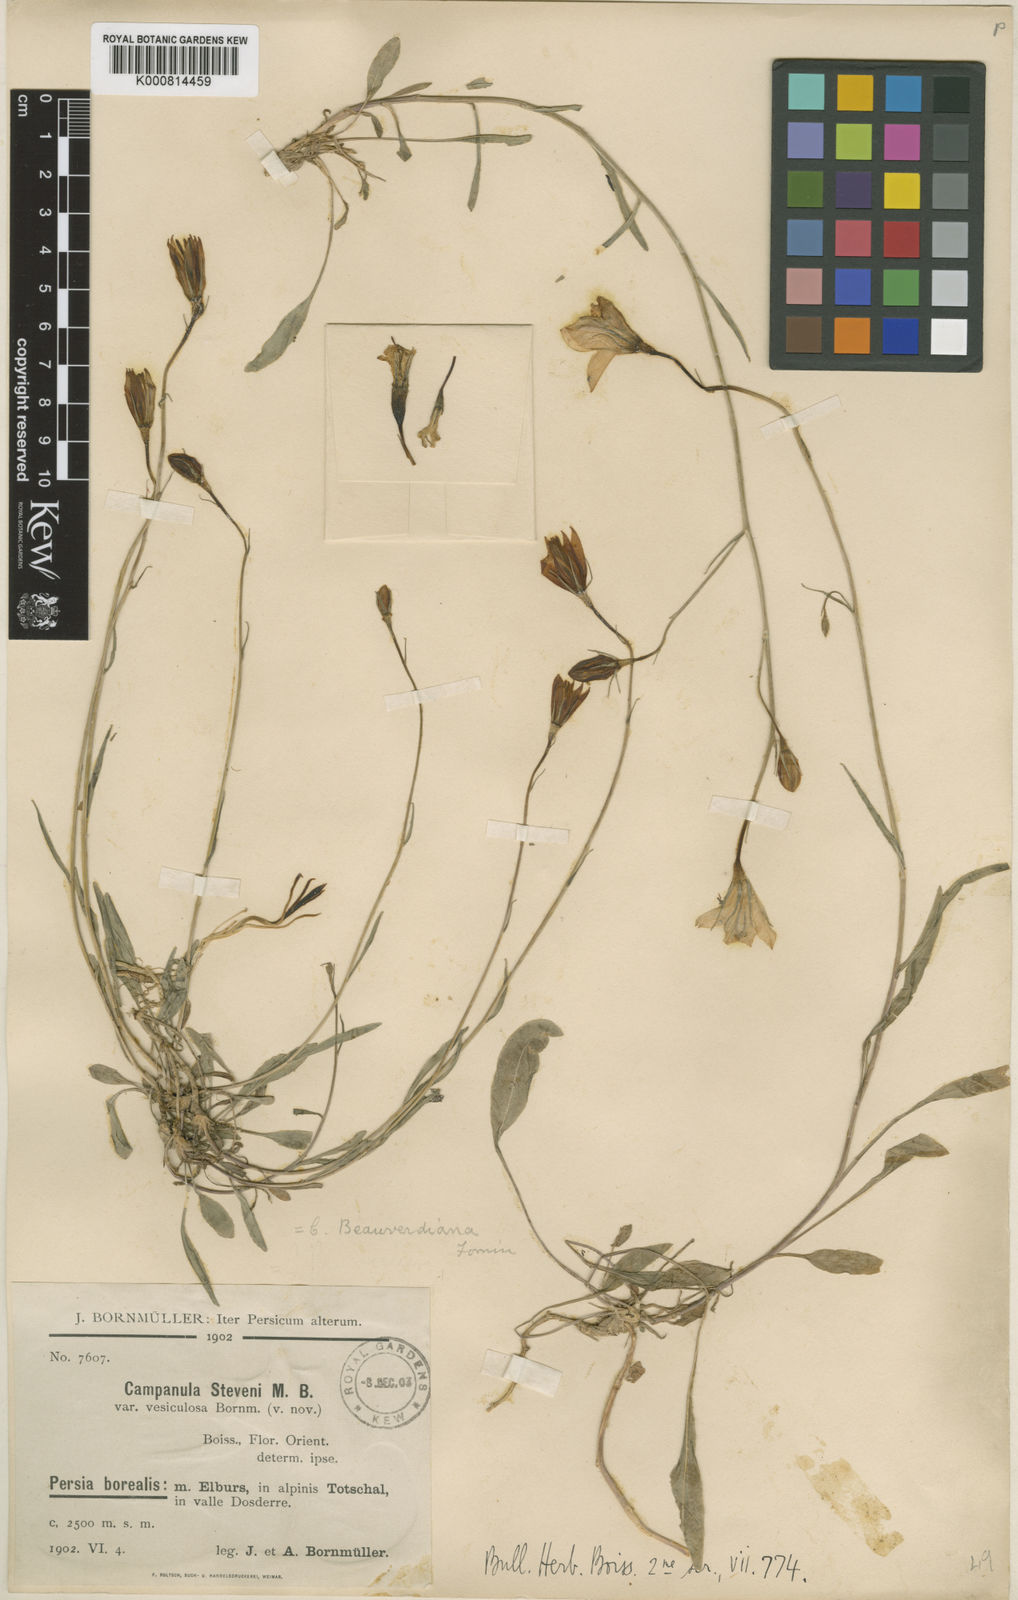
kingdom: Plantae
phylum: Tracheophyta
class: Magnoliopsida
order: Asterales
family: Campanulaceae
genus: Campanula
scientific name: Campanula stevenii
